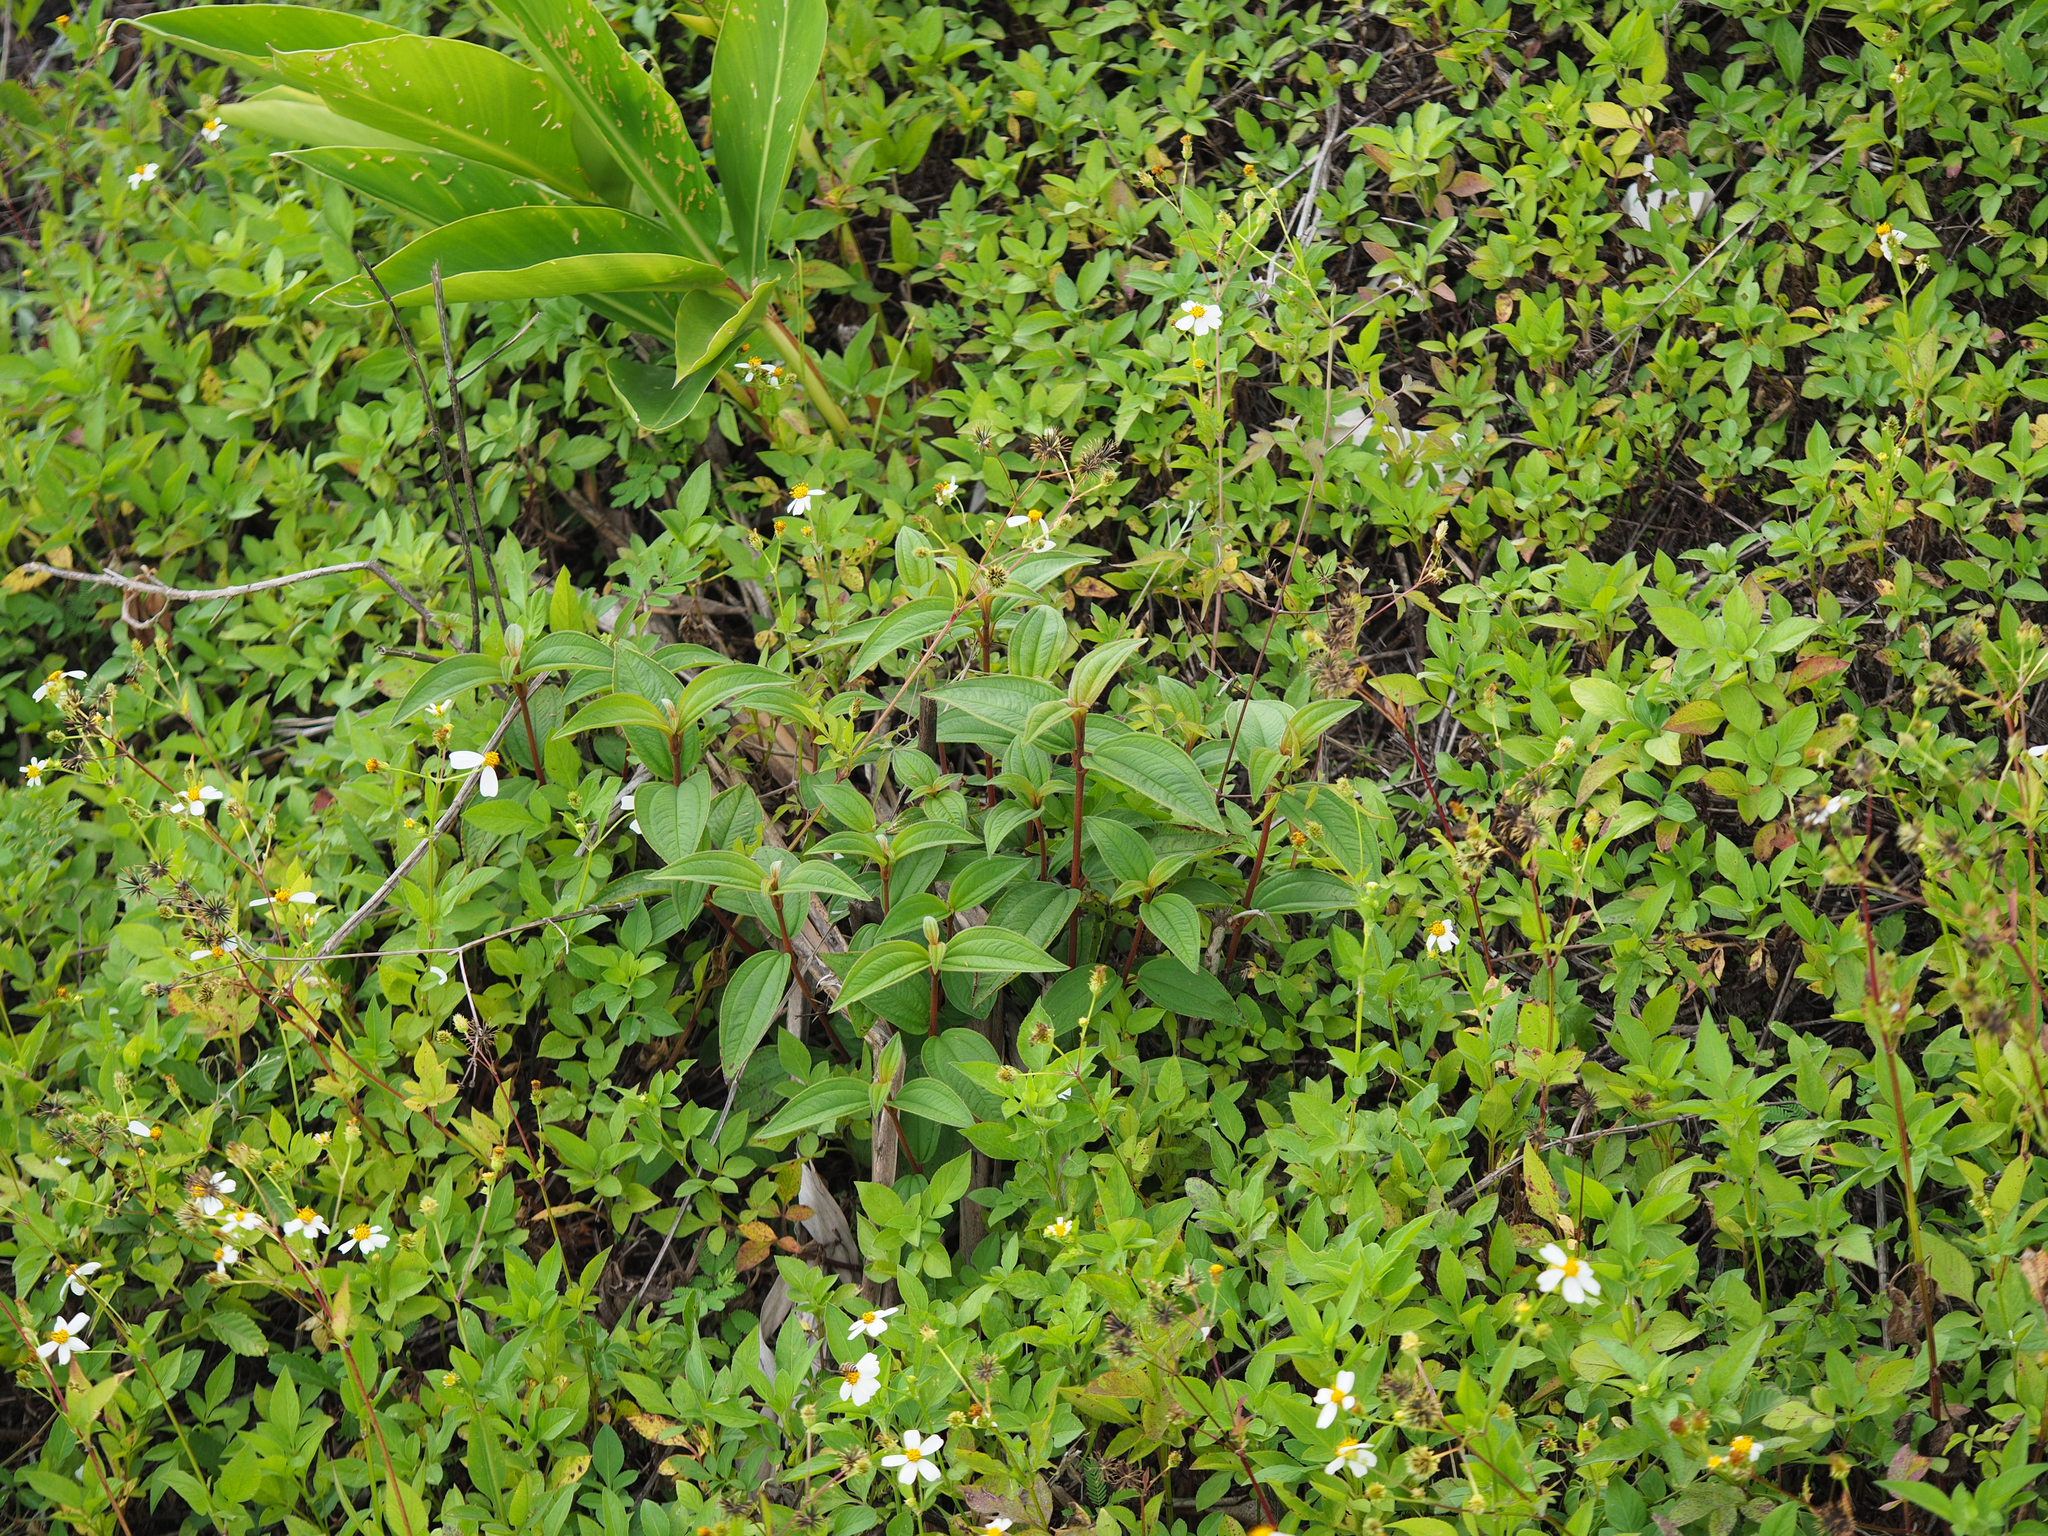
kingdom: Plantae
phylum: Tracheophyta
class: Magnoliopsida
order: Myrtales
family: Melastomataceae
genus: Melastoma
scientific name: Melastoma malabathricum
